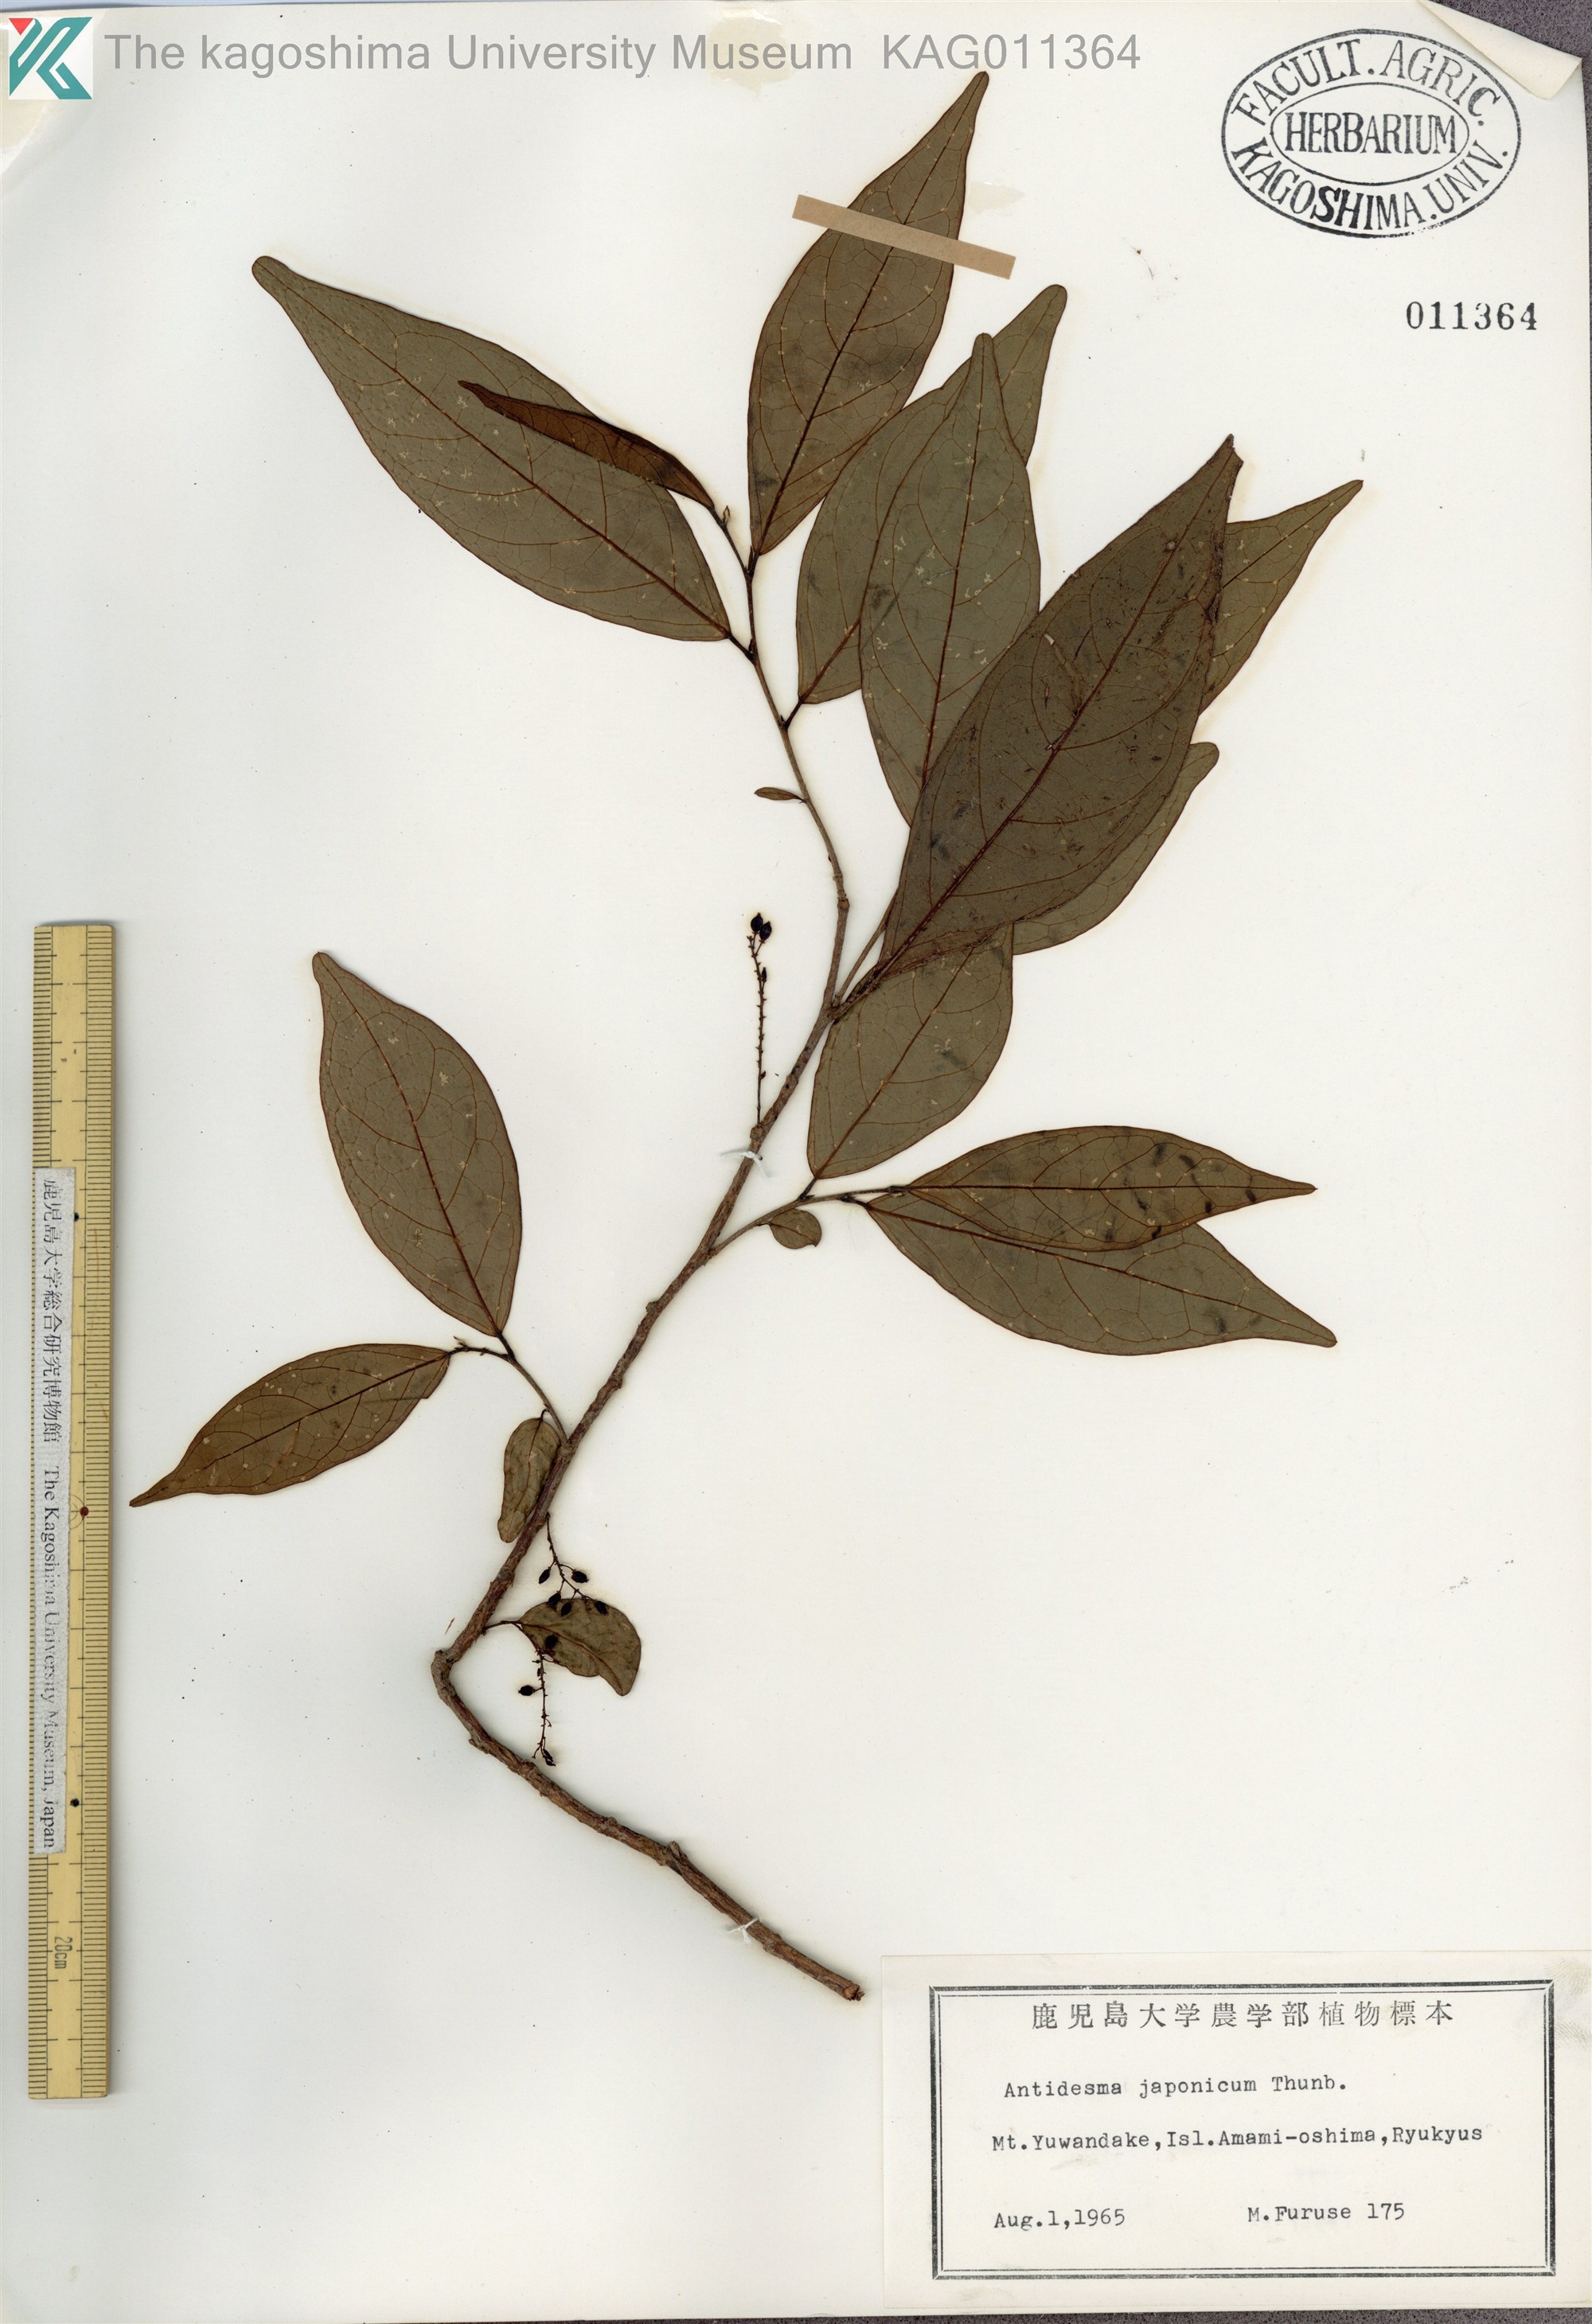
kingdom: Plantae
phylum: Tracheophyta
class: Magnoliopsida
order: Malpighiales
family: Phyllanthaceae
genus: Antidesma
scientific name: Antidesma japonicum
